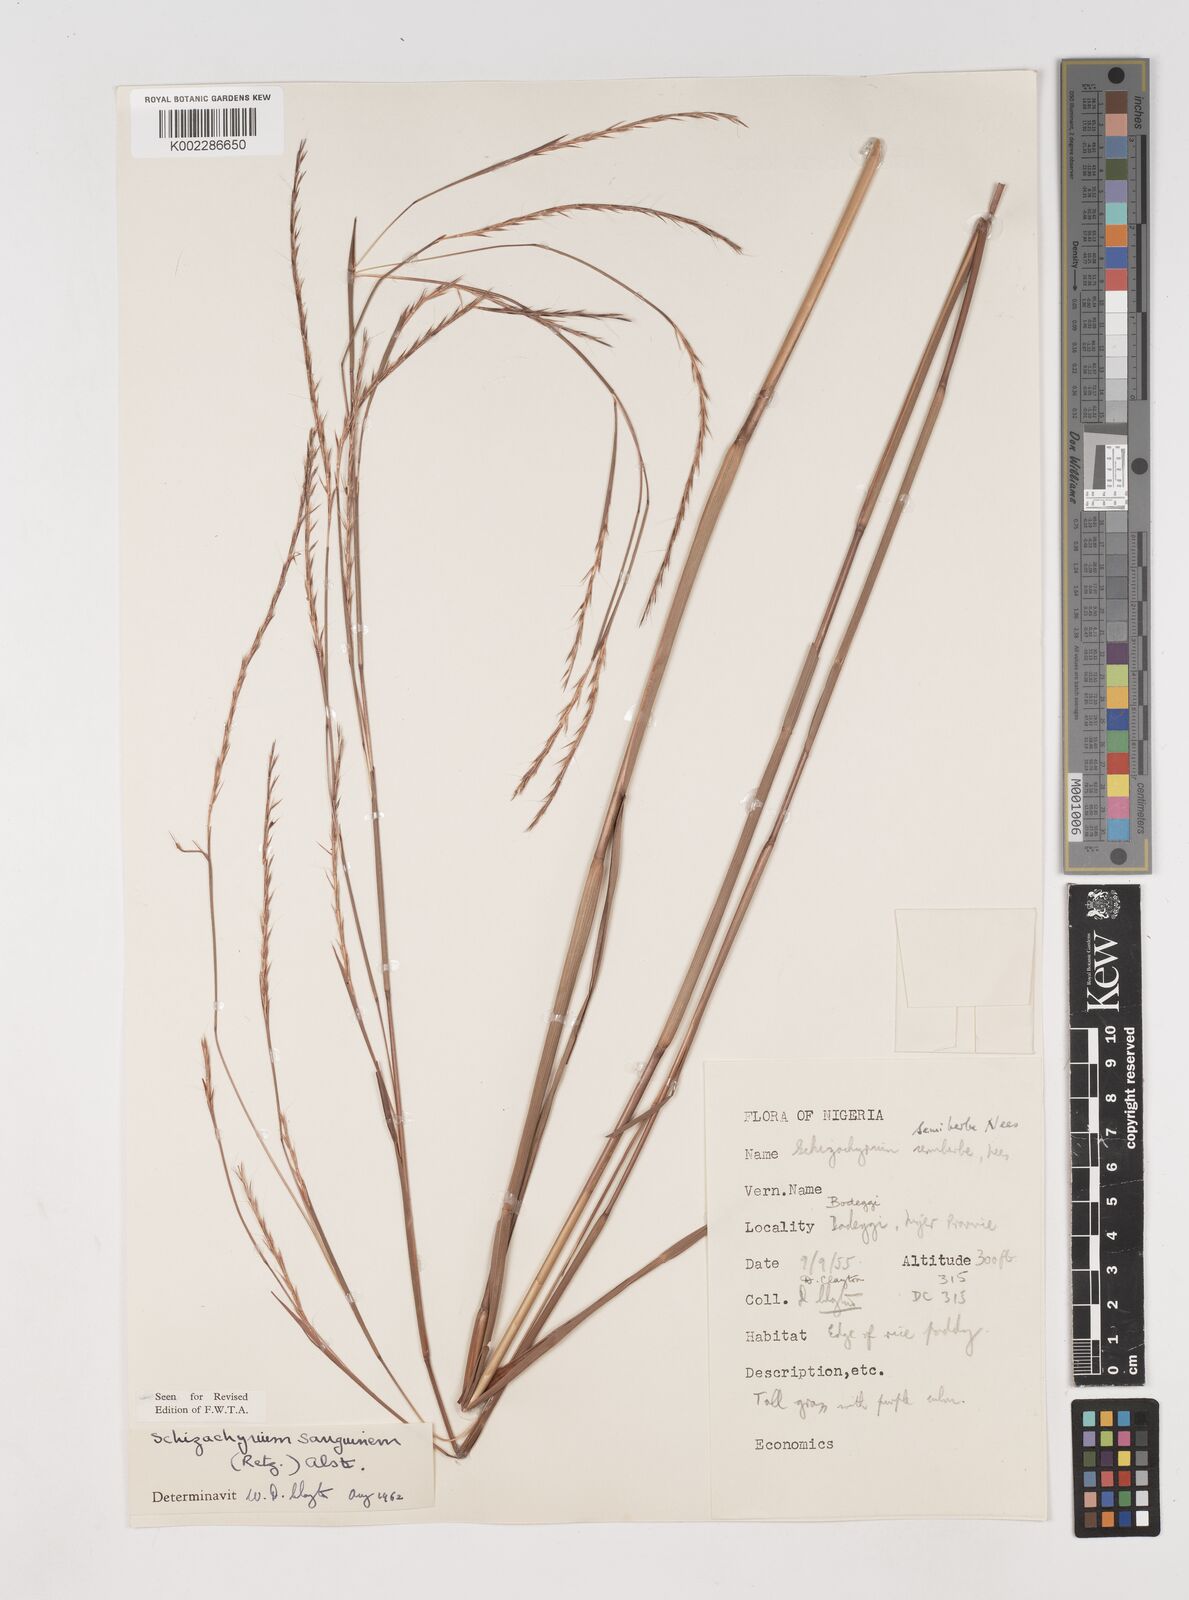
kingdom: Plantae
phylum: Tracheophyta
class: Liliopsida
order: Poales
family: Poaceae
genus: Schizachyrium
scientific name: Schizachyrium sanguineum
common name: Crimson bluestem
